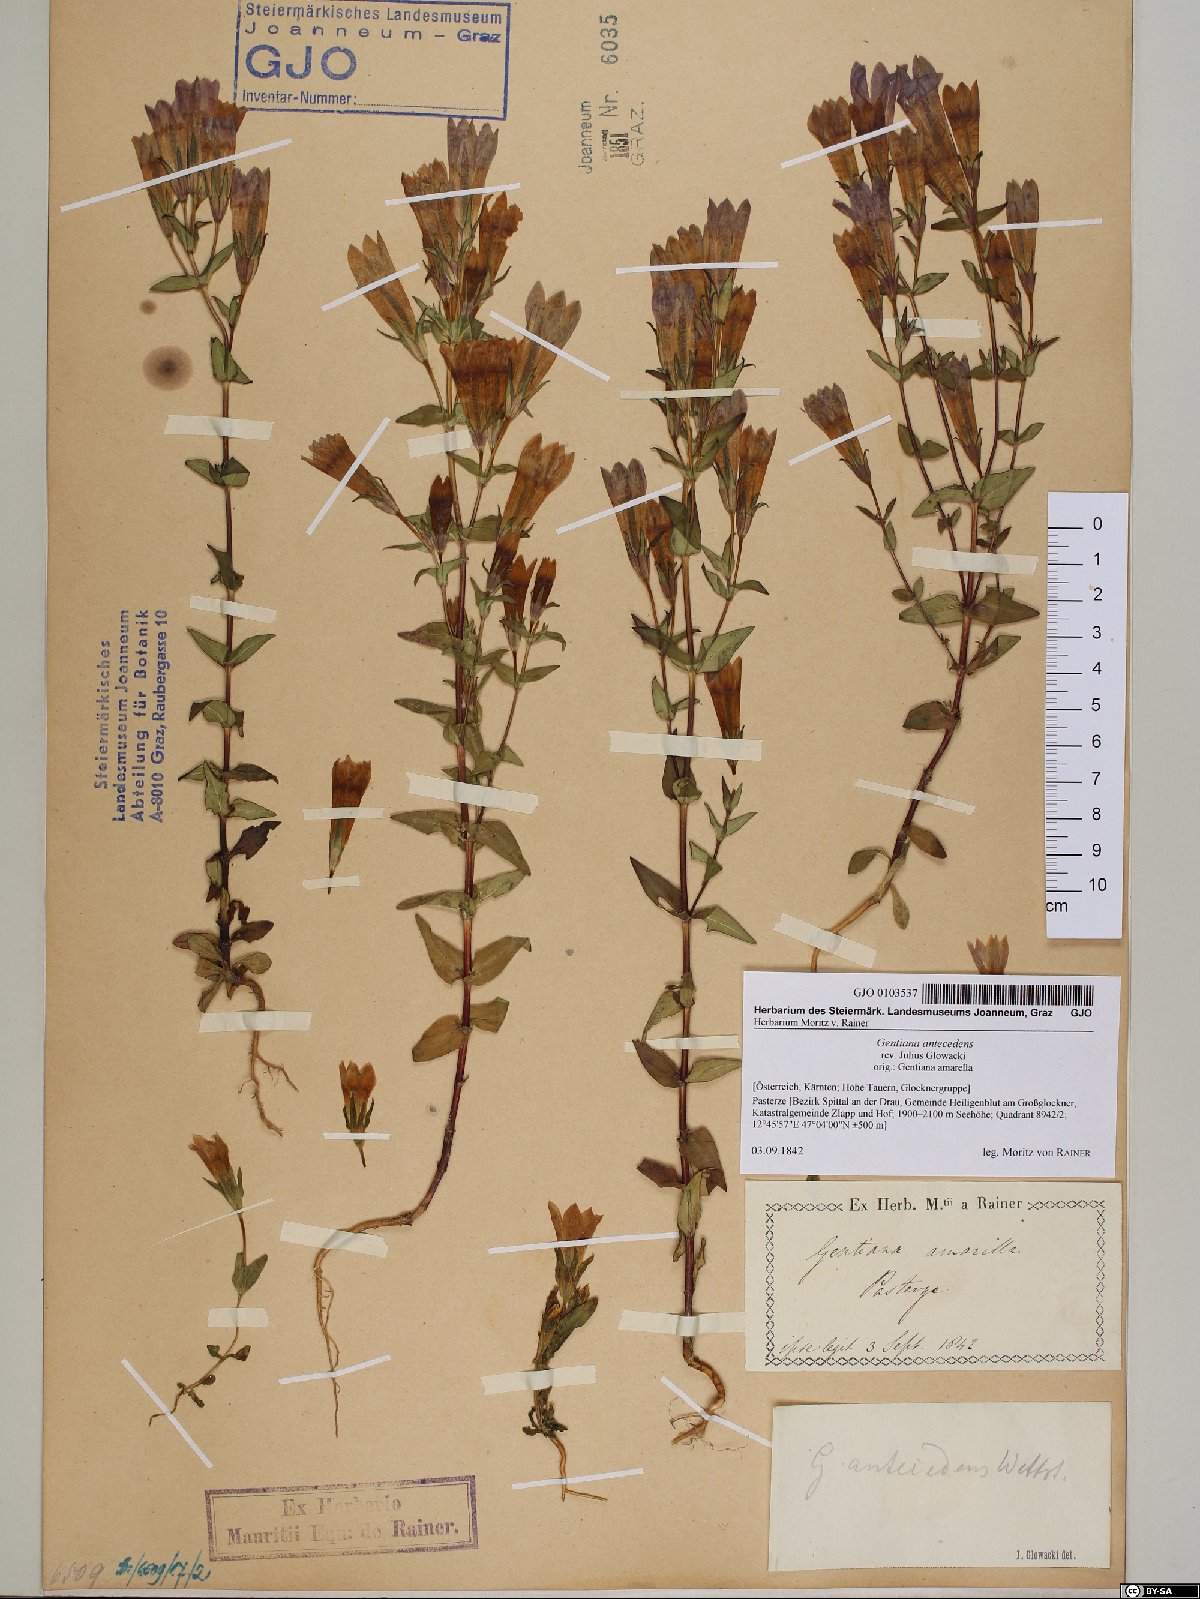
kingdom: Plantae
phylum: Tracheophyta
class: Magnoliopsida
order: Gentianales
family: Gentianaceae
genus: Gentianella
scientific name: Gentianella anisodonta
